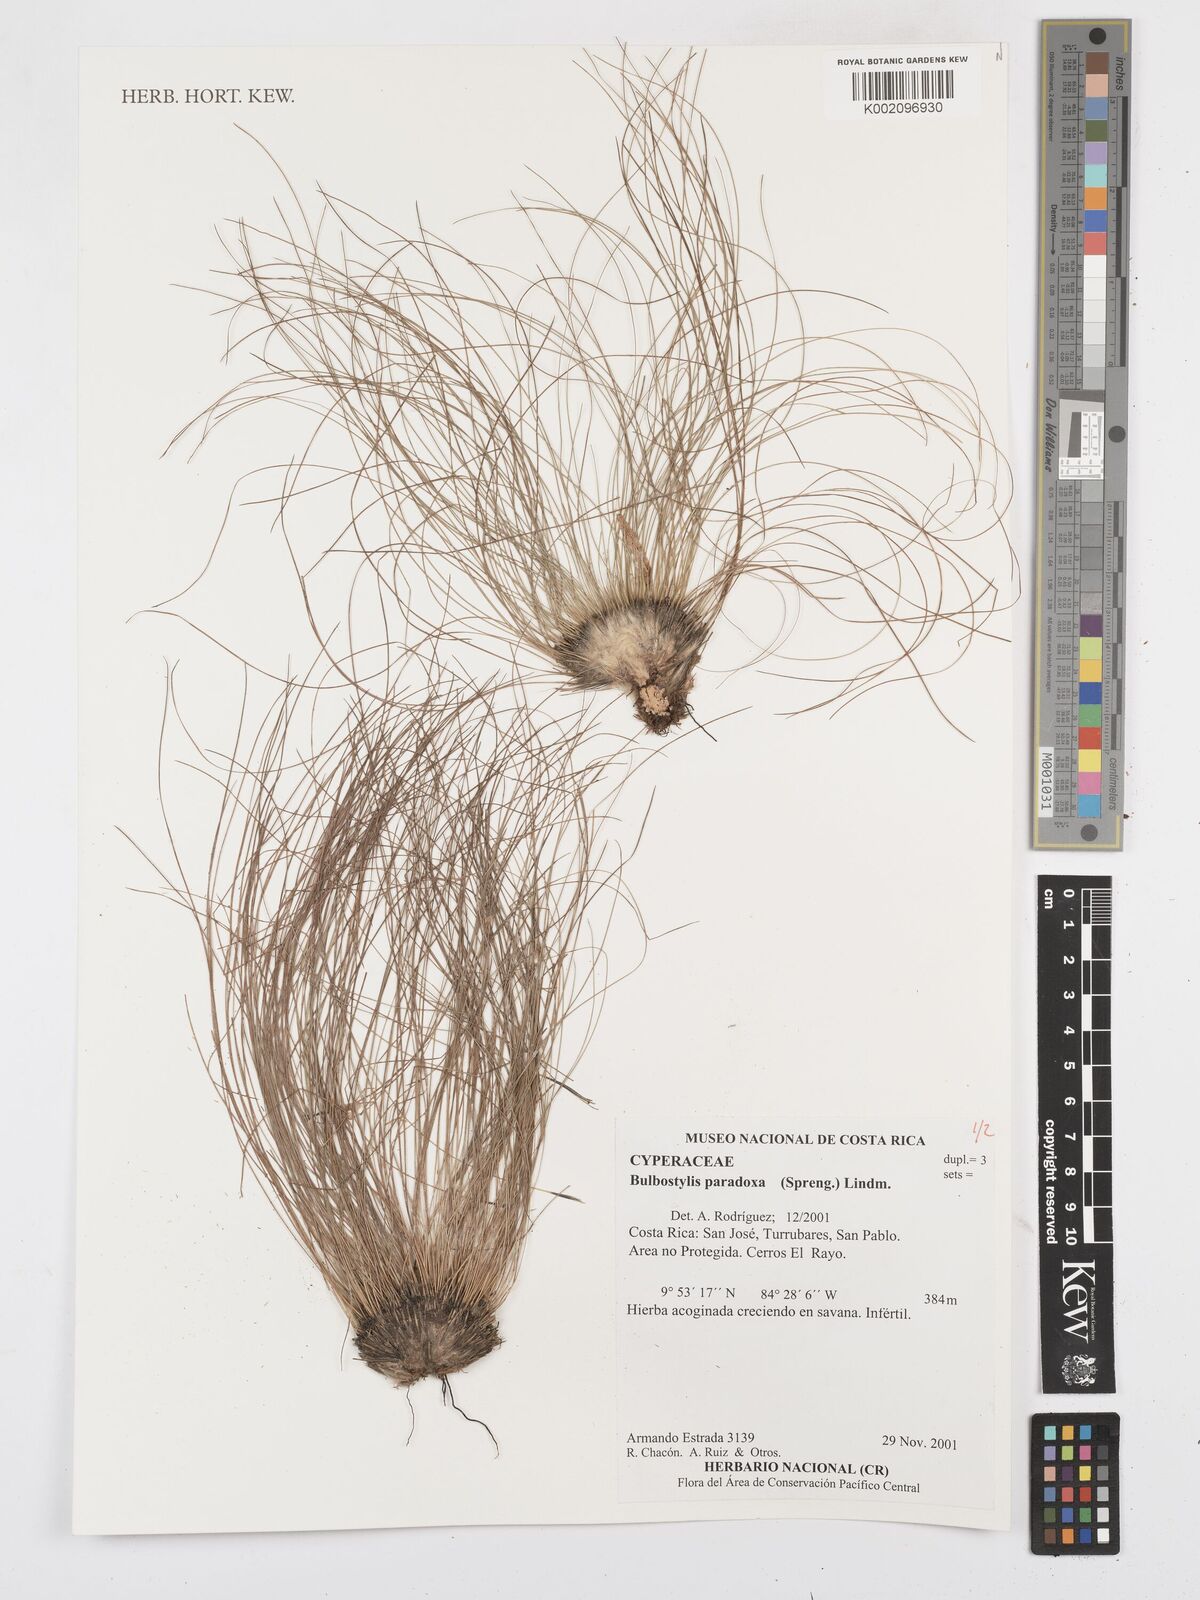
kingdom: Plantae
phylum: Tracheophyta
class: Liliopsida
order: Poales
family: Cyperaceae
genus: Bulbostylis
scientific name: Bulbostylis paradoxa
